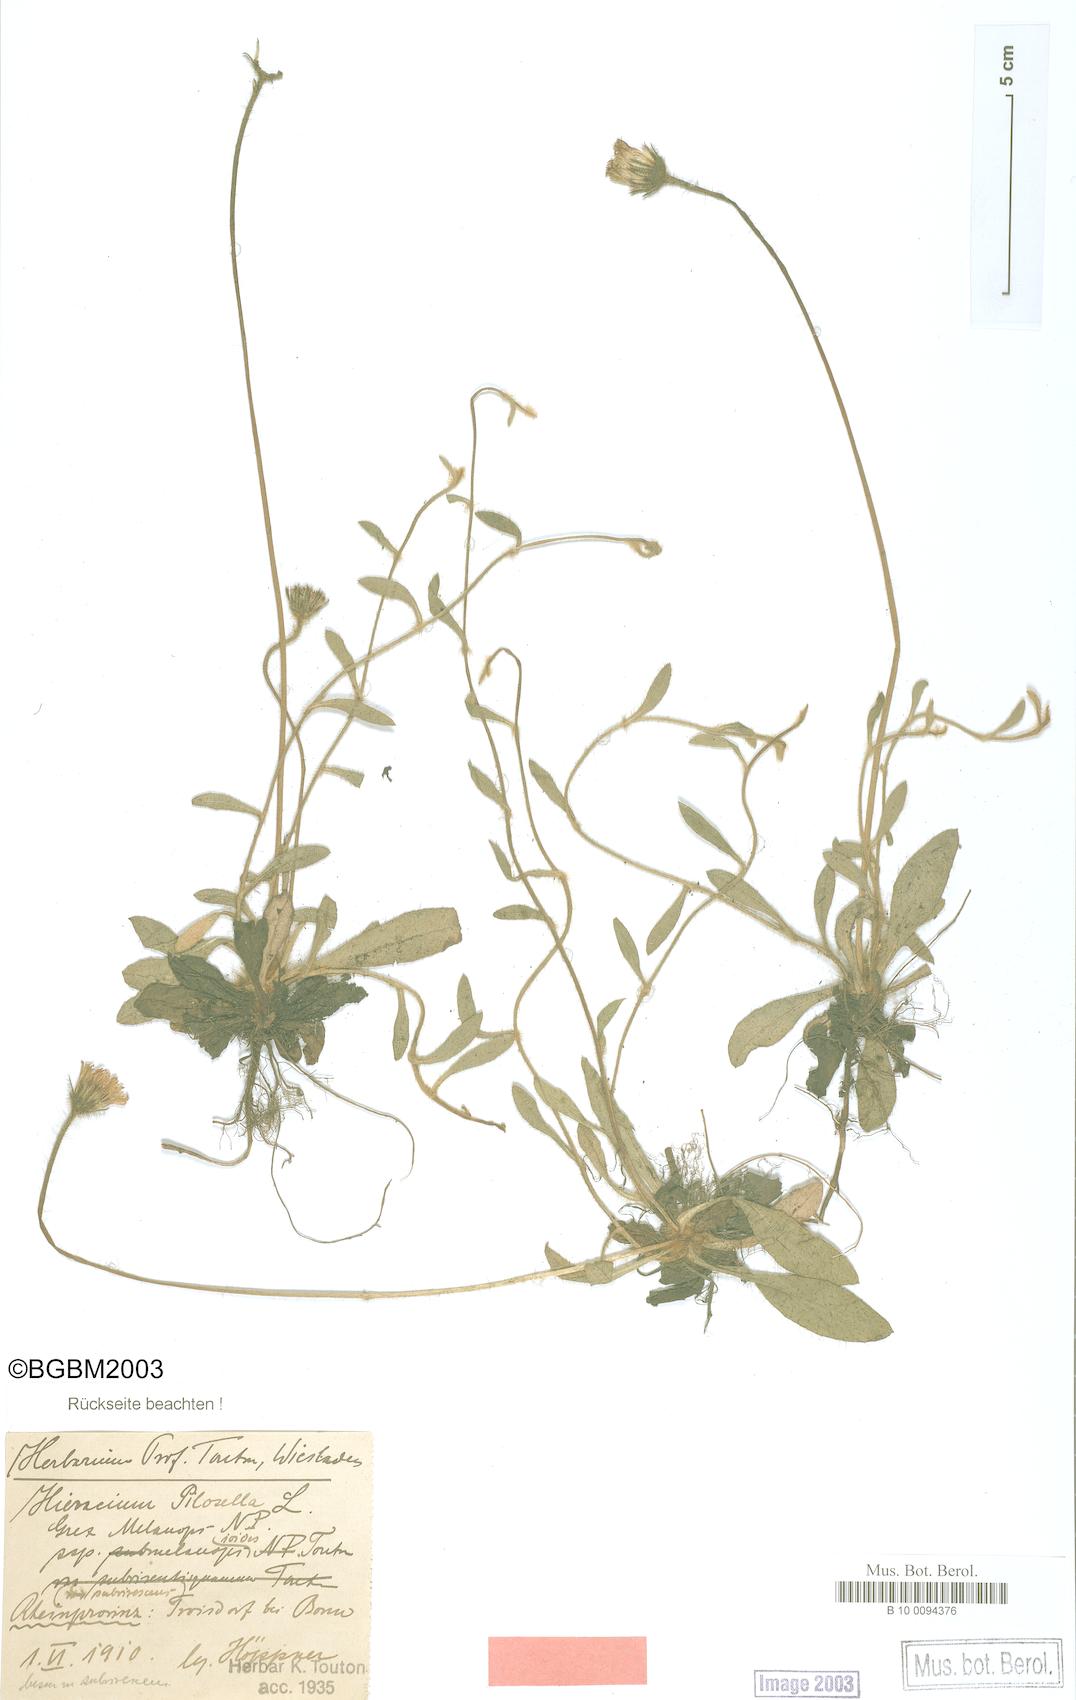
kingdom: Plantae
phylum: Tracheophyta
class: Magnoliopsida
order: Asterales
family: Asteraceae
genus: Pilosella
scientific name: Pilosella officinarum
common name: Mouse-ear hawkweed
